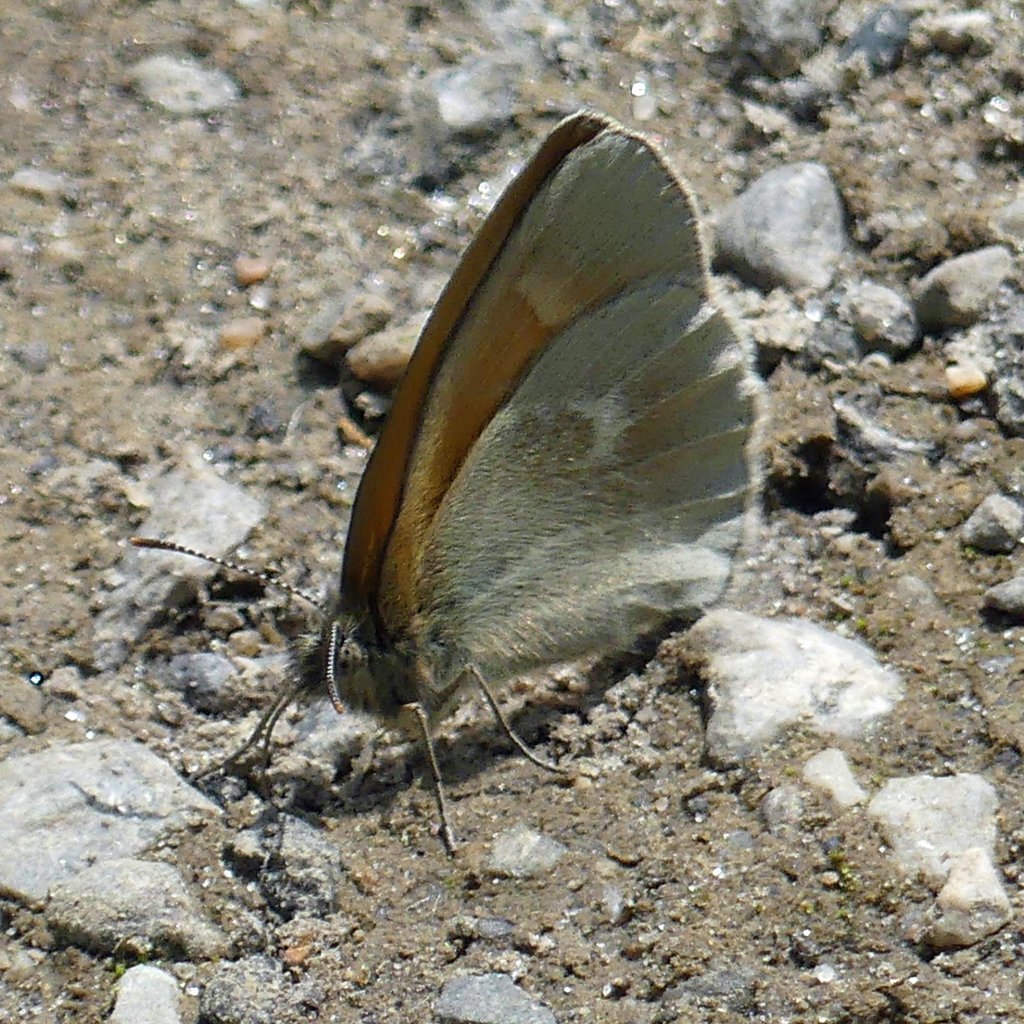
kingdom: Animalia
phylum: Arthropoda
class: Insecta
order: Lepidoptera
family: Nymphalidae
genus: Coenonympha
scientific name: Coenonympha tullia
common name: Large Heath
